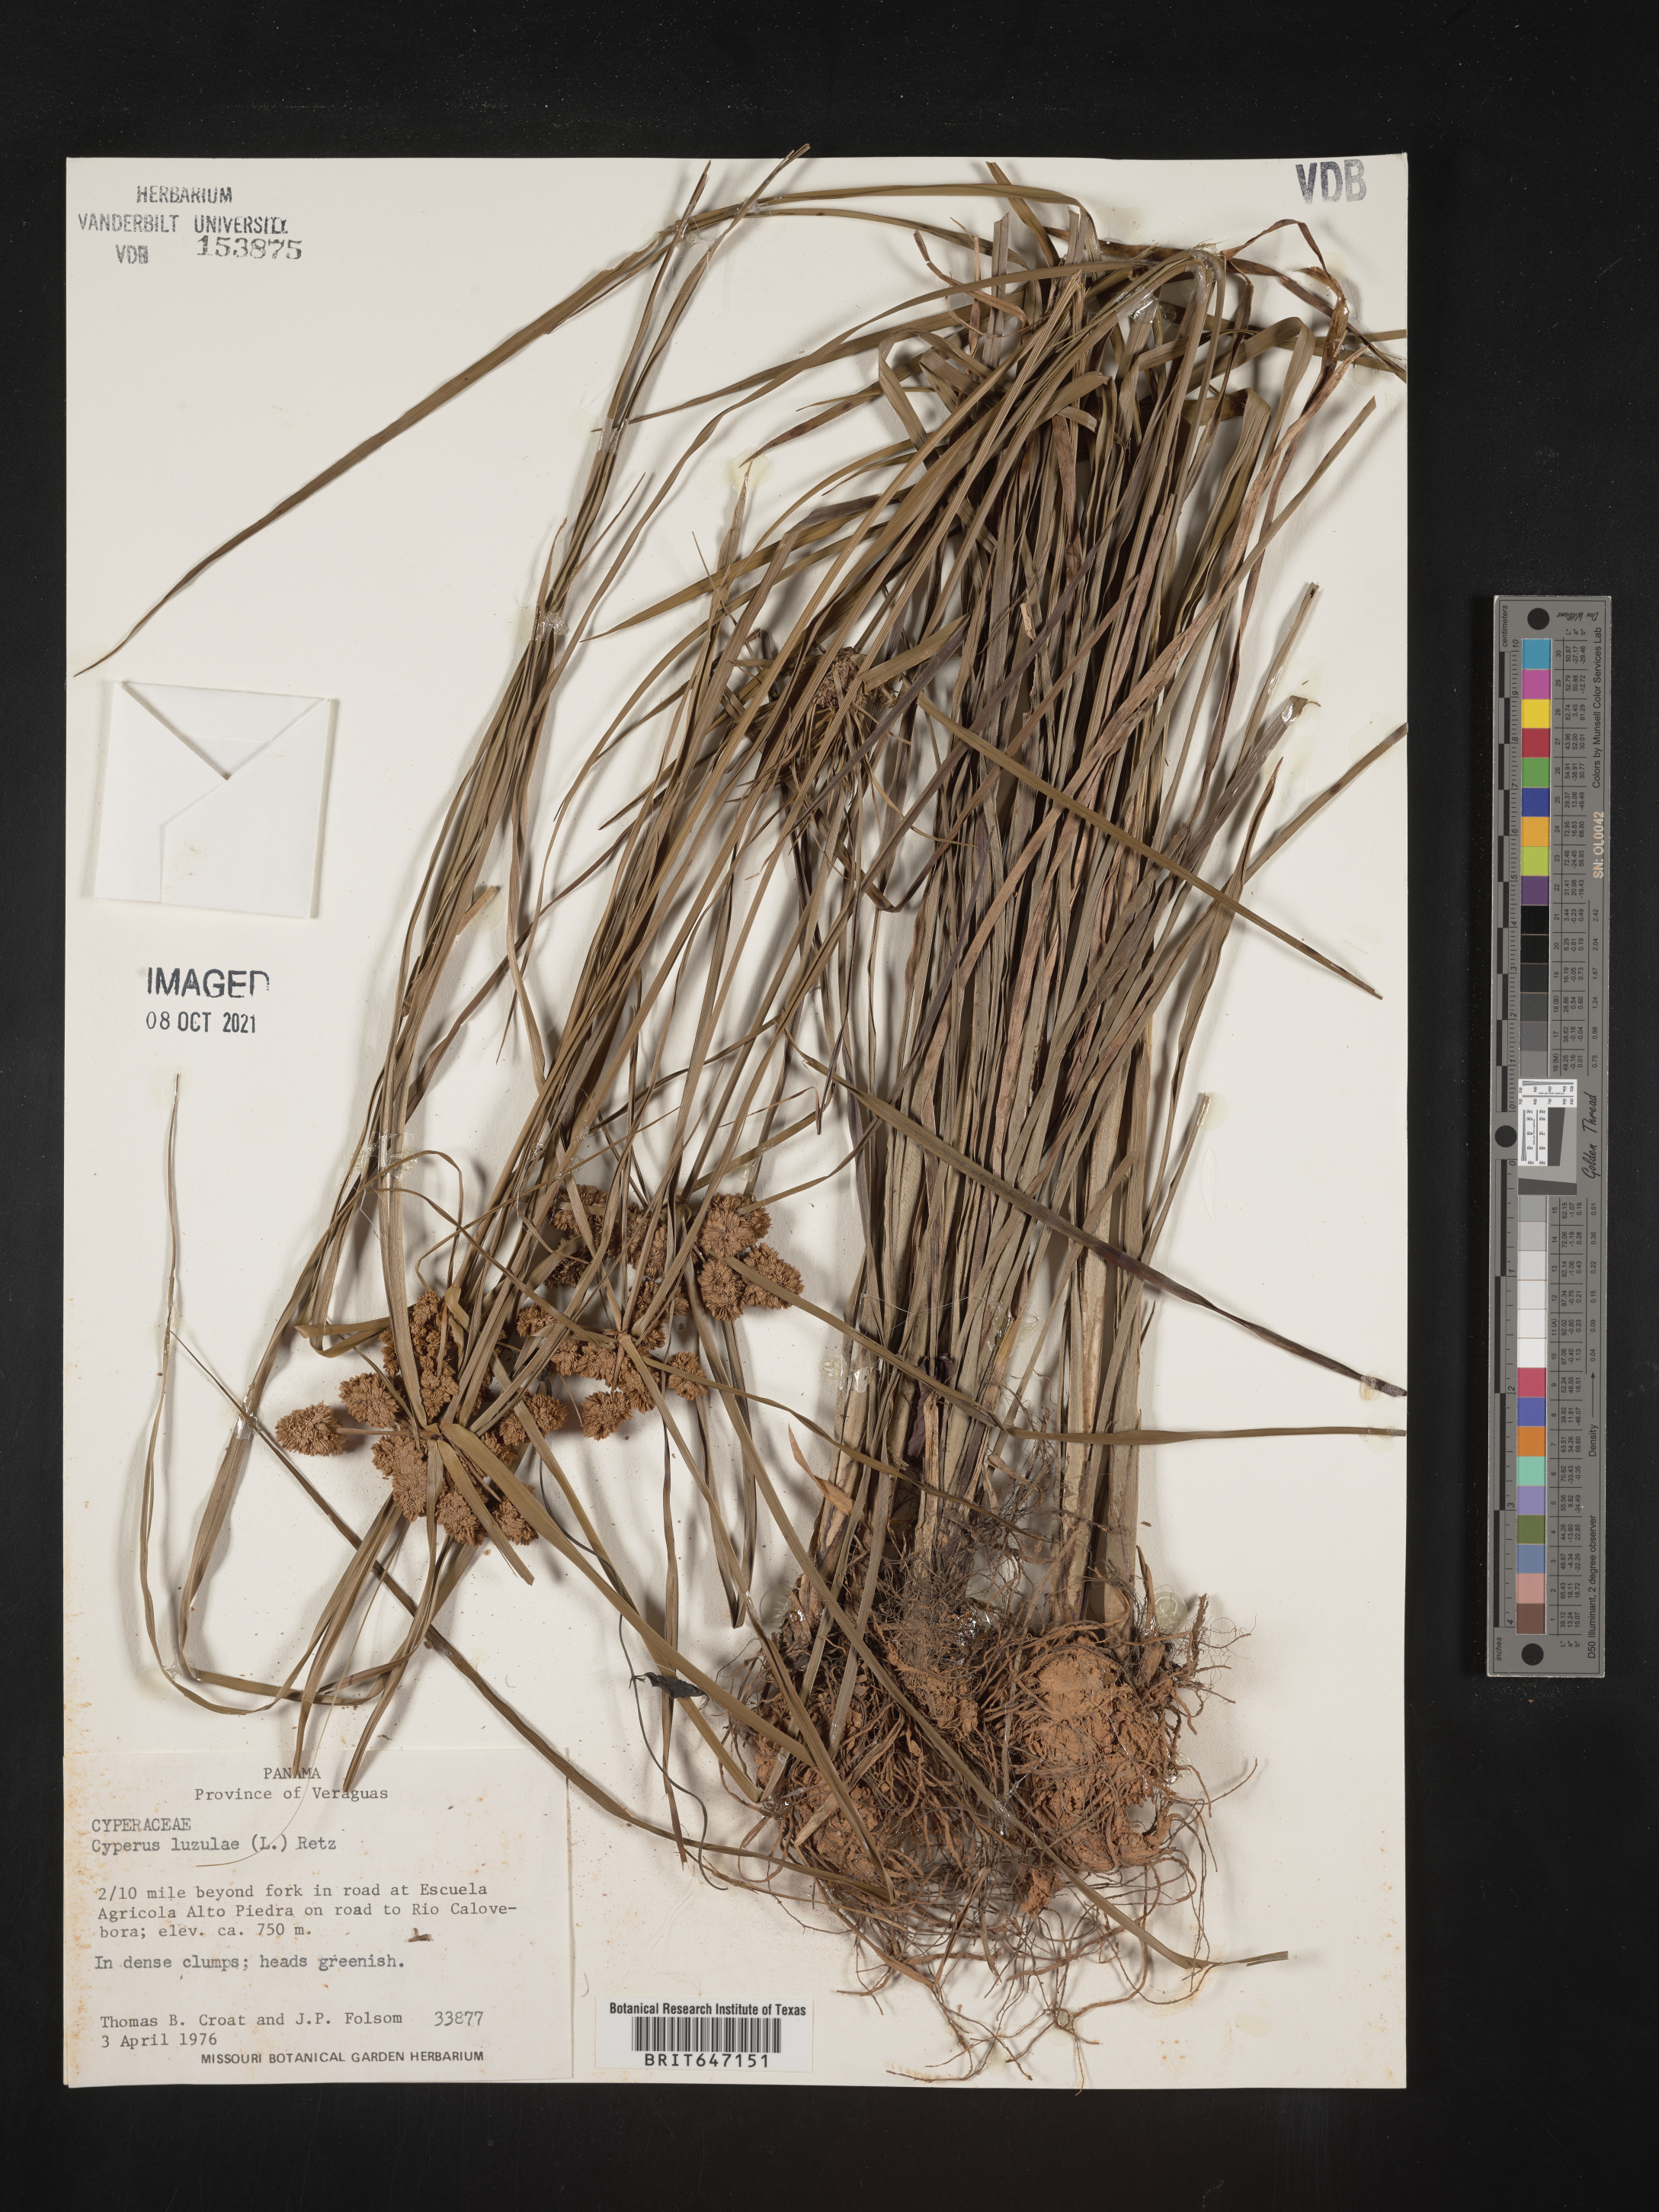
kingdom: Plantae
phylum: Tracheophyta
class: Liliopsida
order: Poales
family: Cyperaceae
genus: Cyperus
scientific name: Cyperus luzulae
